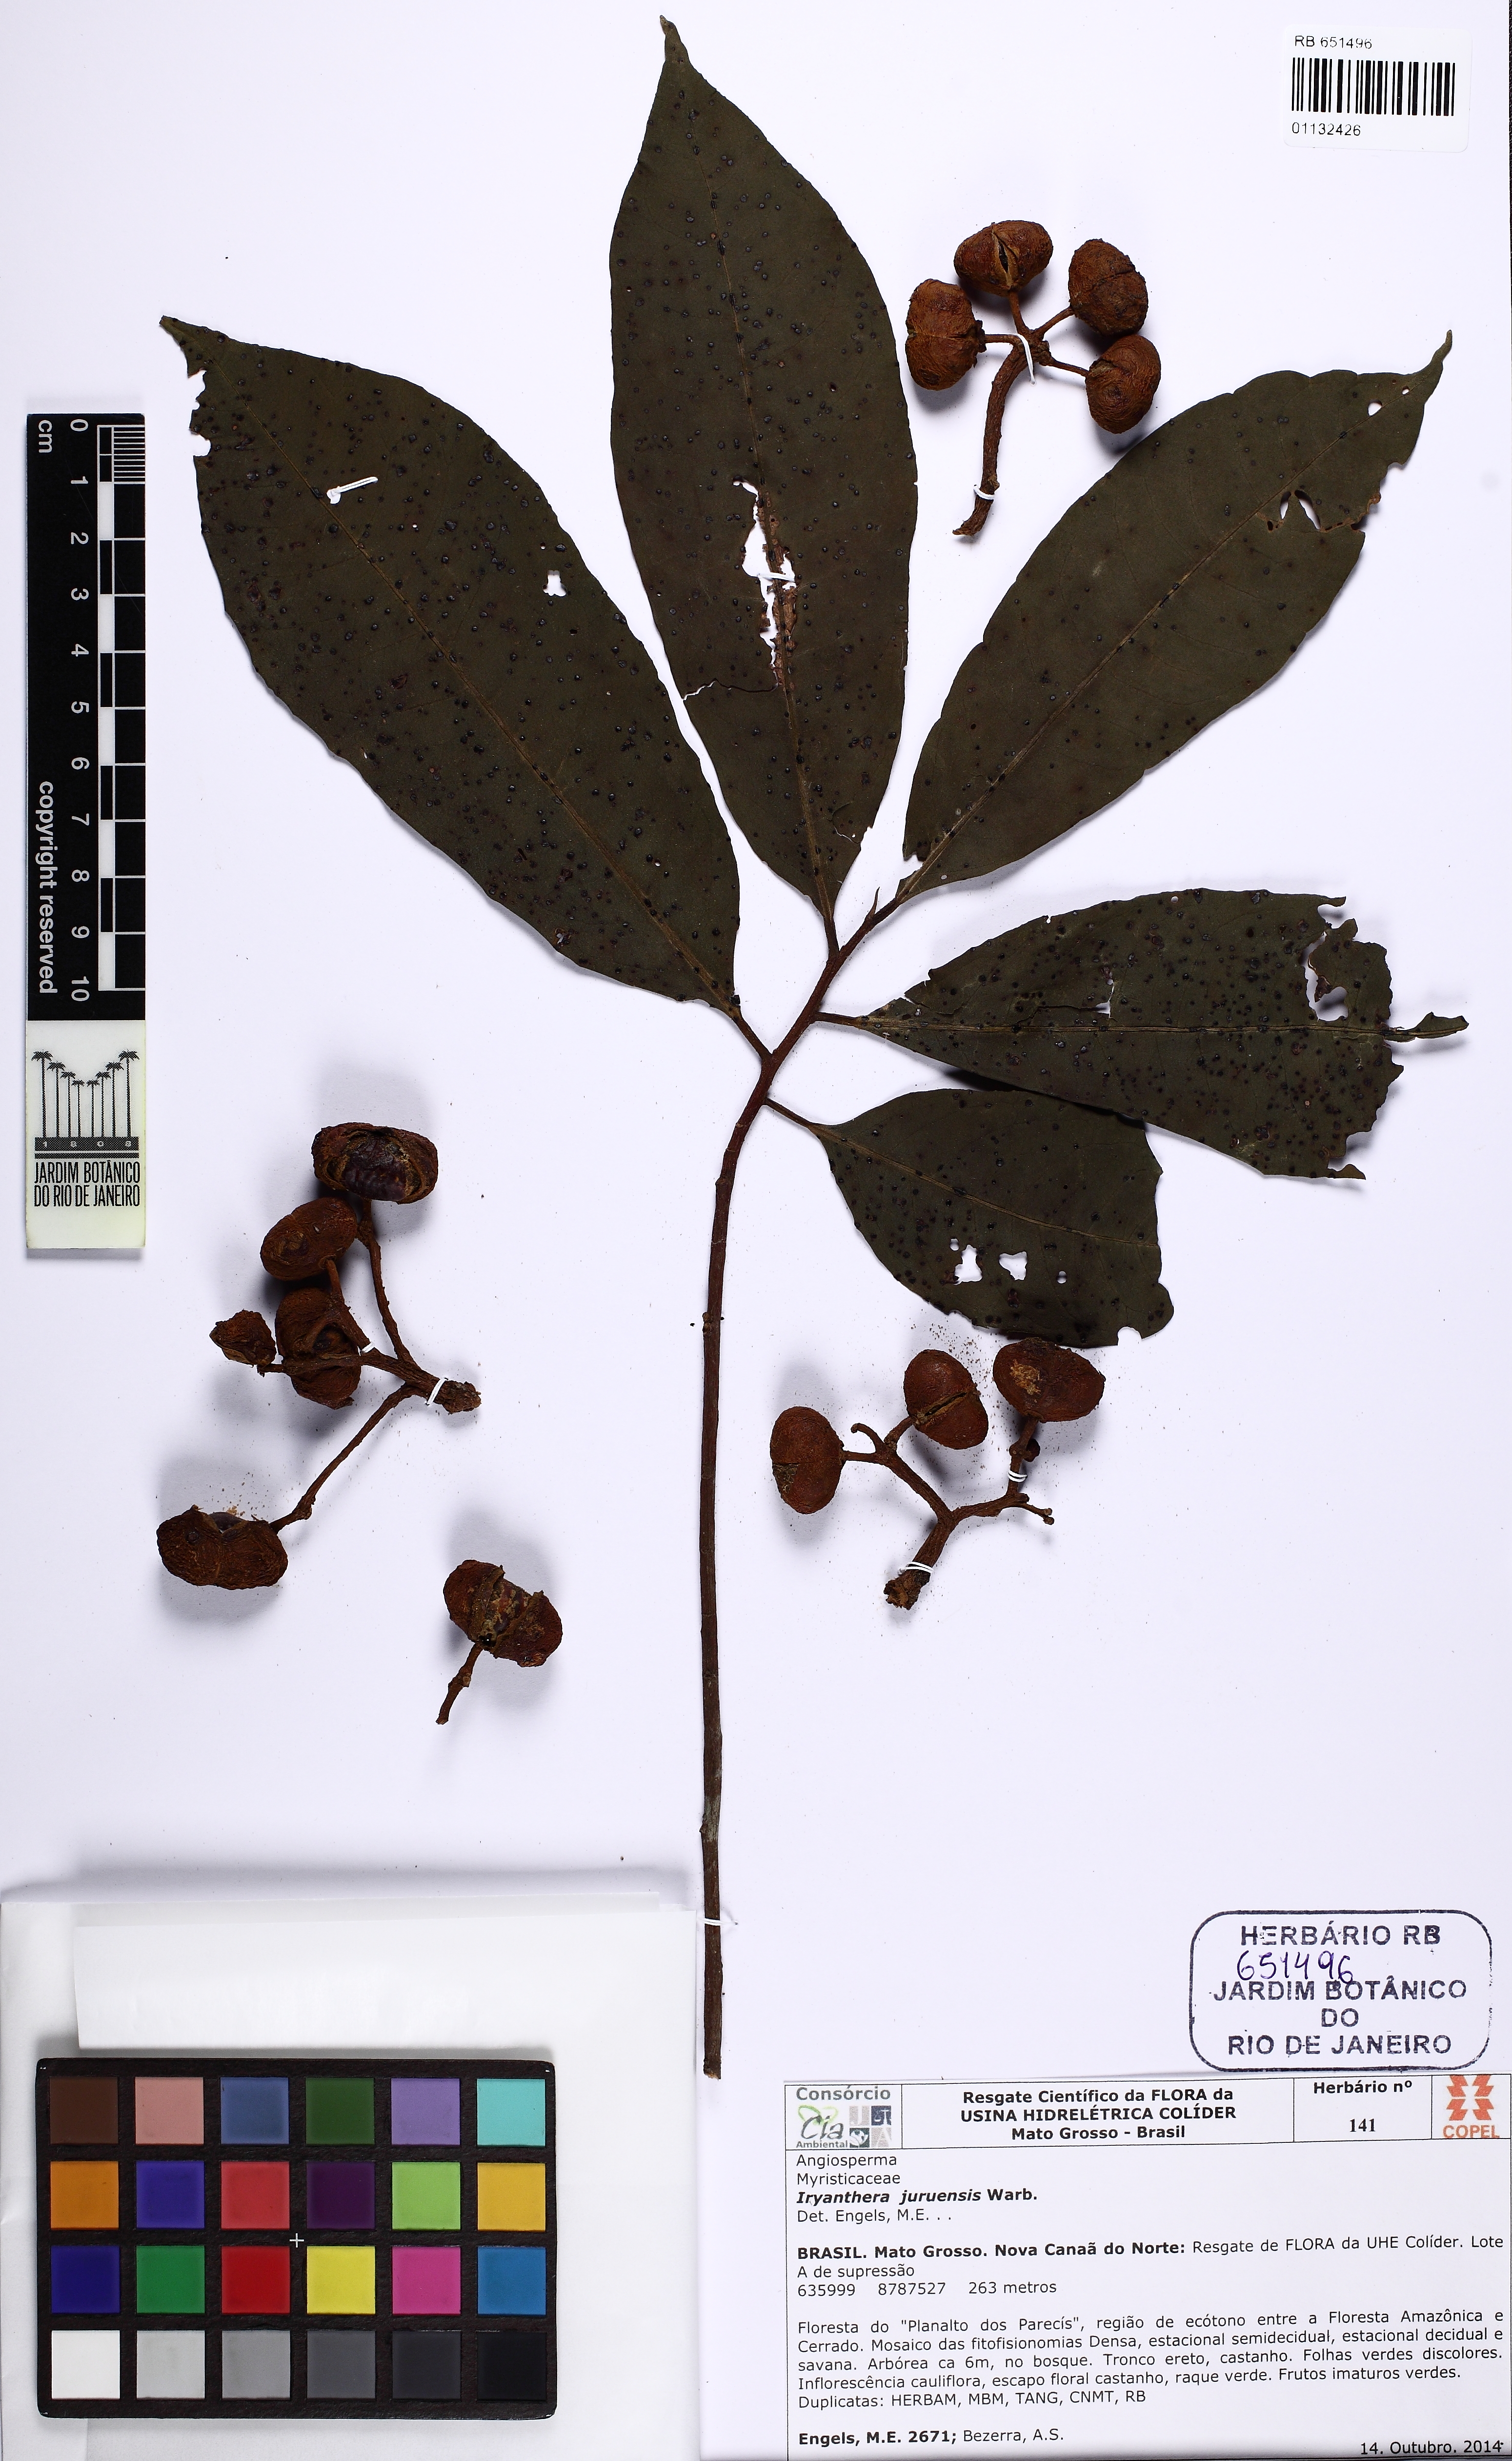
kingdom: Plantae
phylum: Tracheophyta
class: Magnoliopsida
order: Magnoliales
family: Myristicaceae
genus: Iryanthera
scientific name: Iryanthera juruensis
